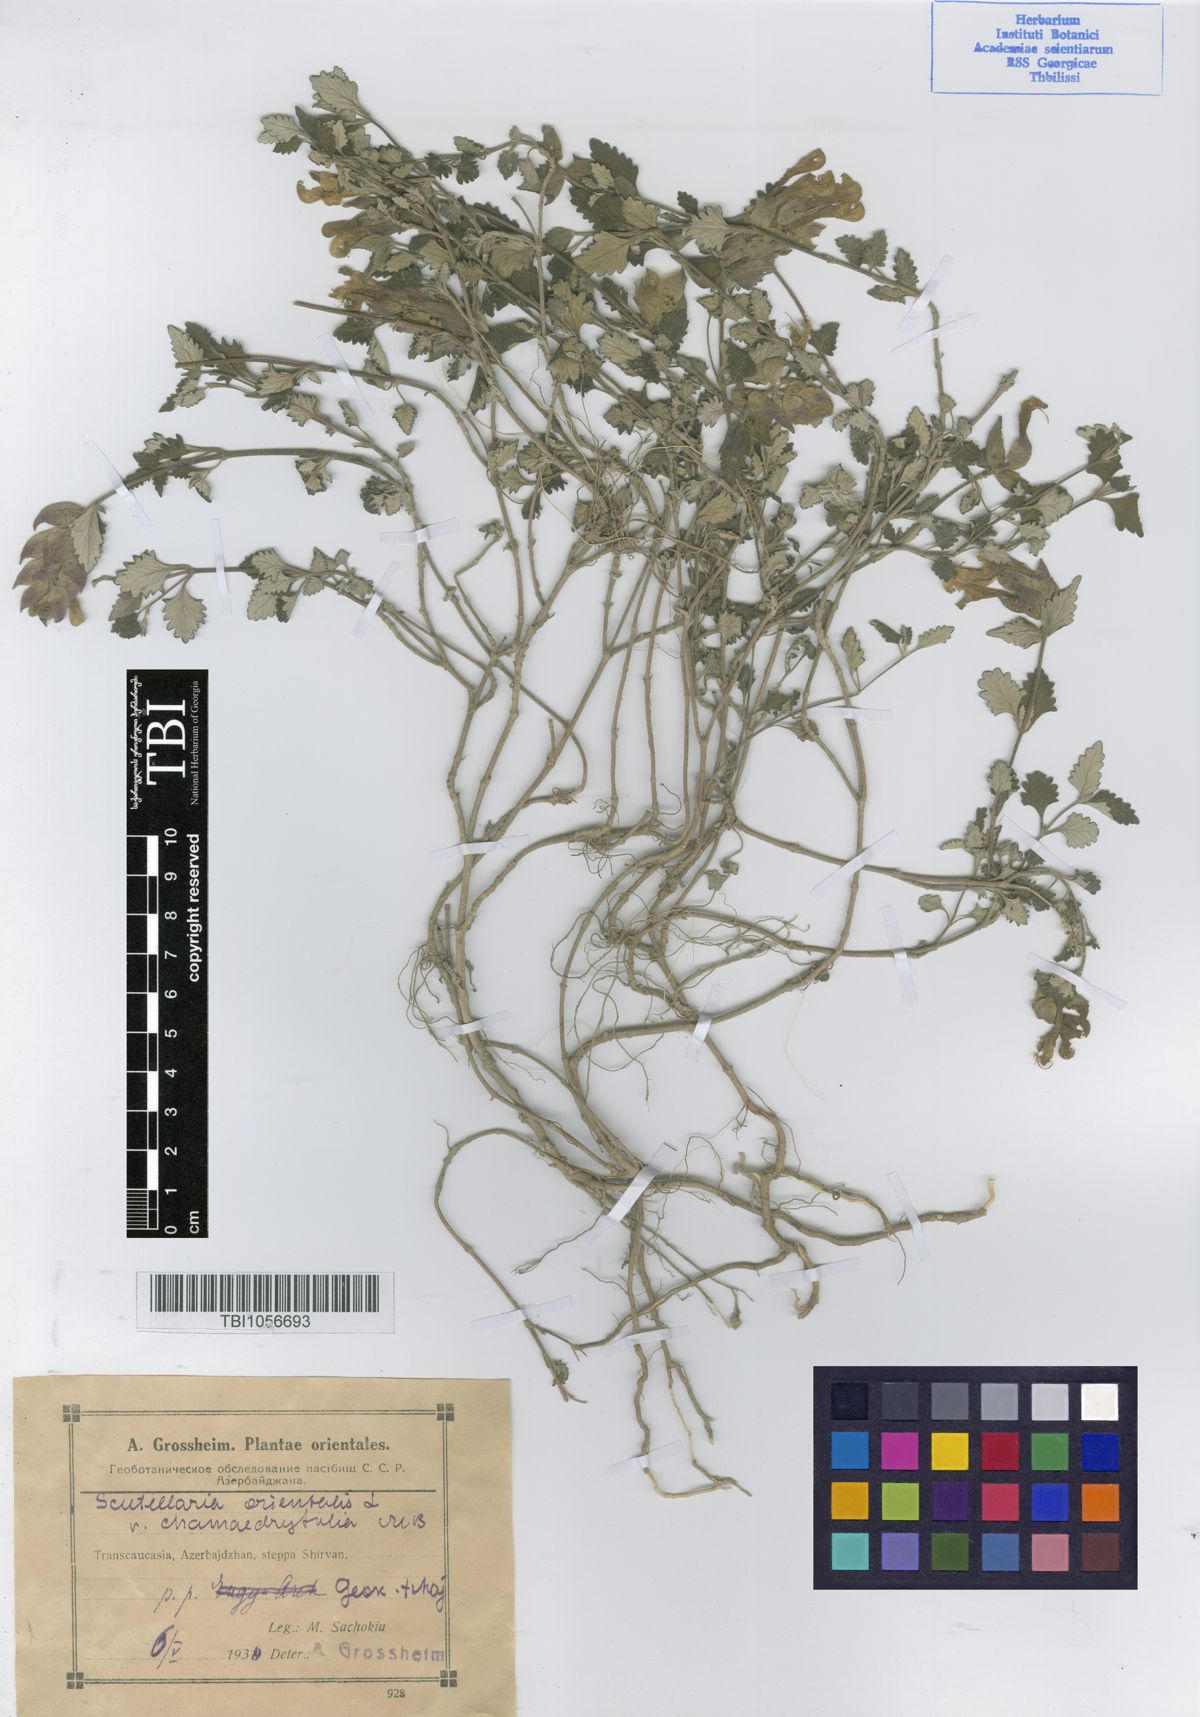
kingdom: Plantae
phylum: Tracheophyta
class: Magnoliopsida
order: Lamiales
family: Lamiaceae
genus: Scutellaria
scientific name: Scutellaria orientalis
